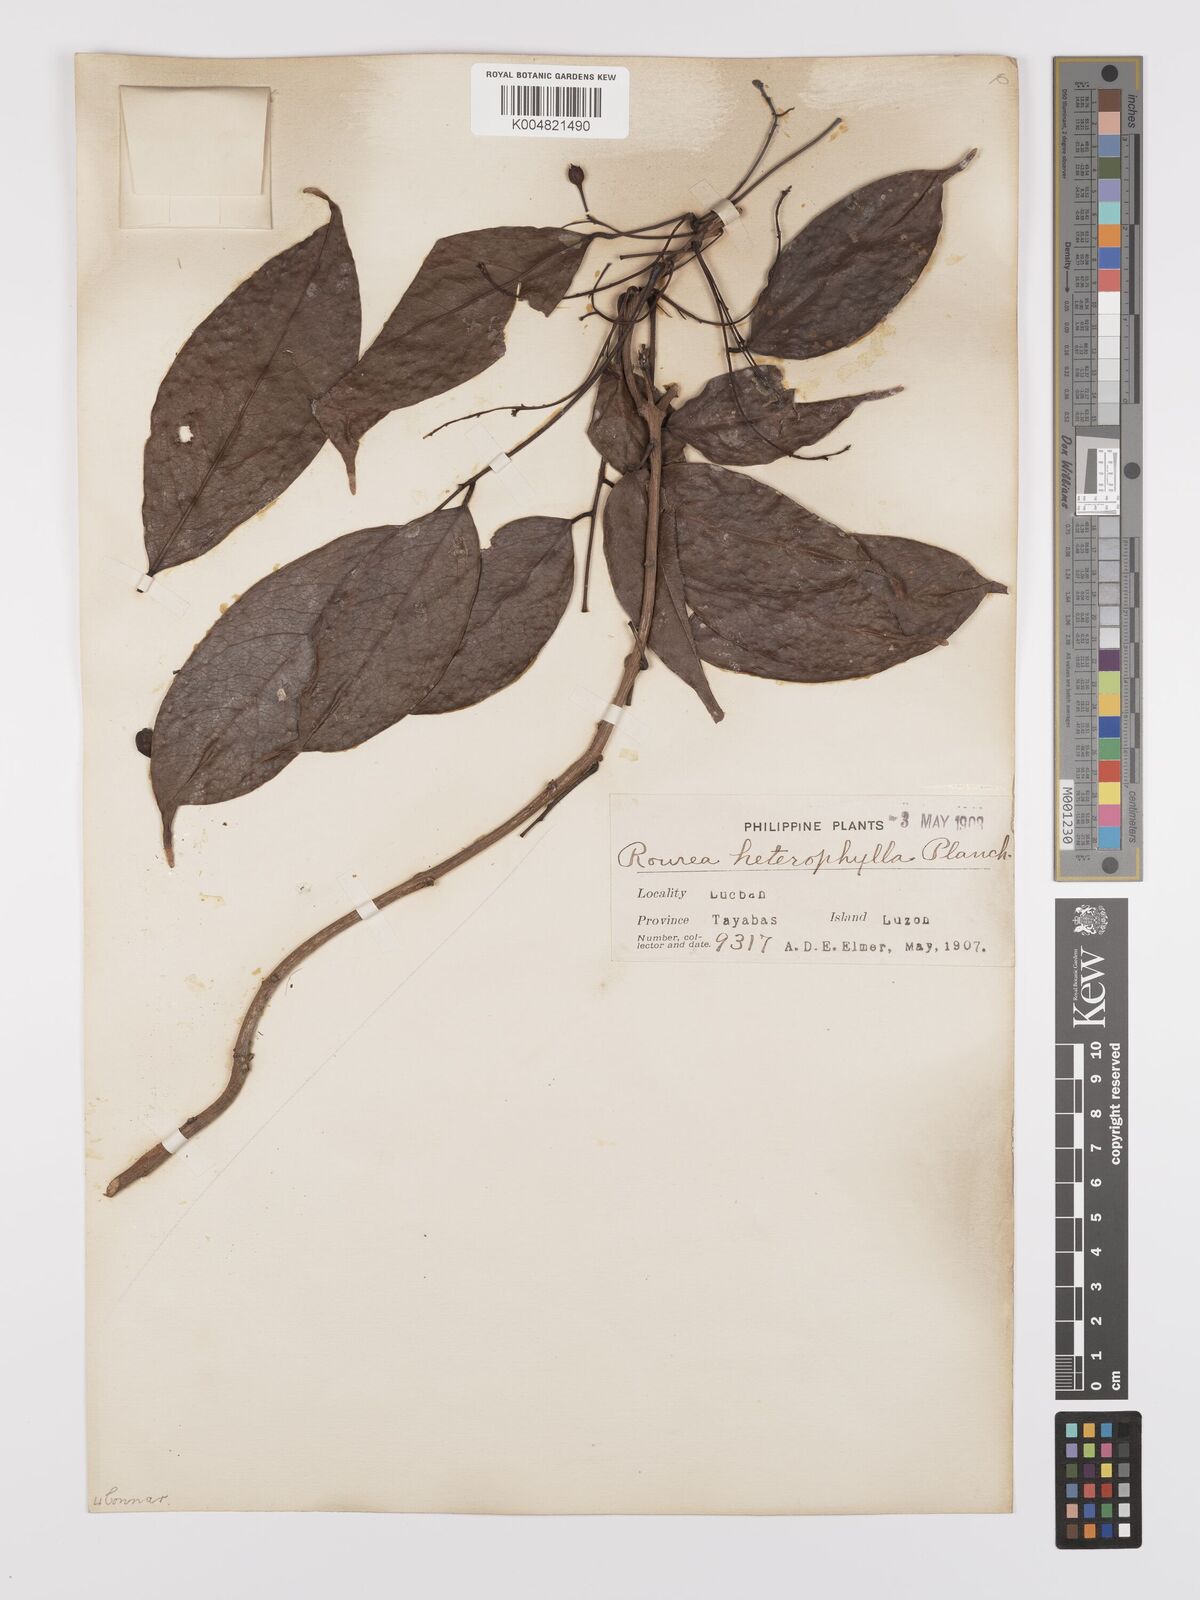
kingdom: Plantae
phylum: Tracheophyta
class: Magnoliopsida
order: Oxalidales
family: Connaraceae
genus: Rourea
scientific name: Rourea minor
